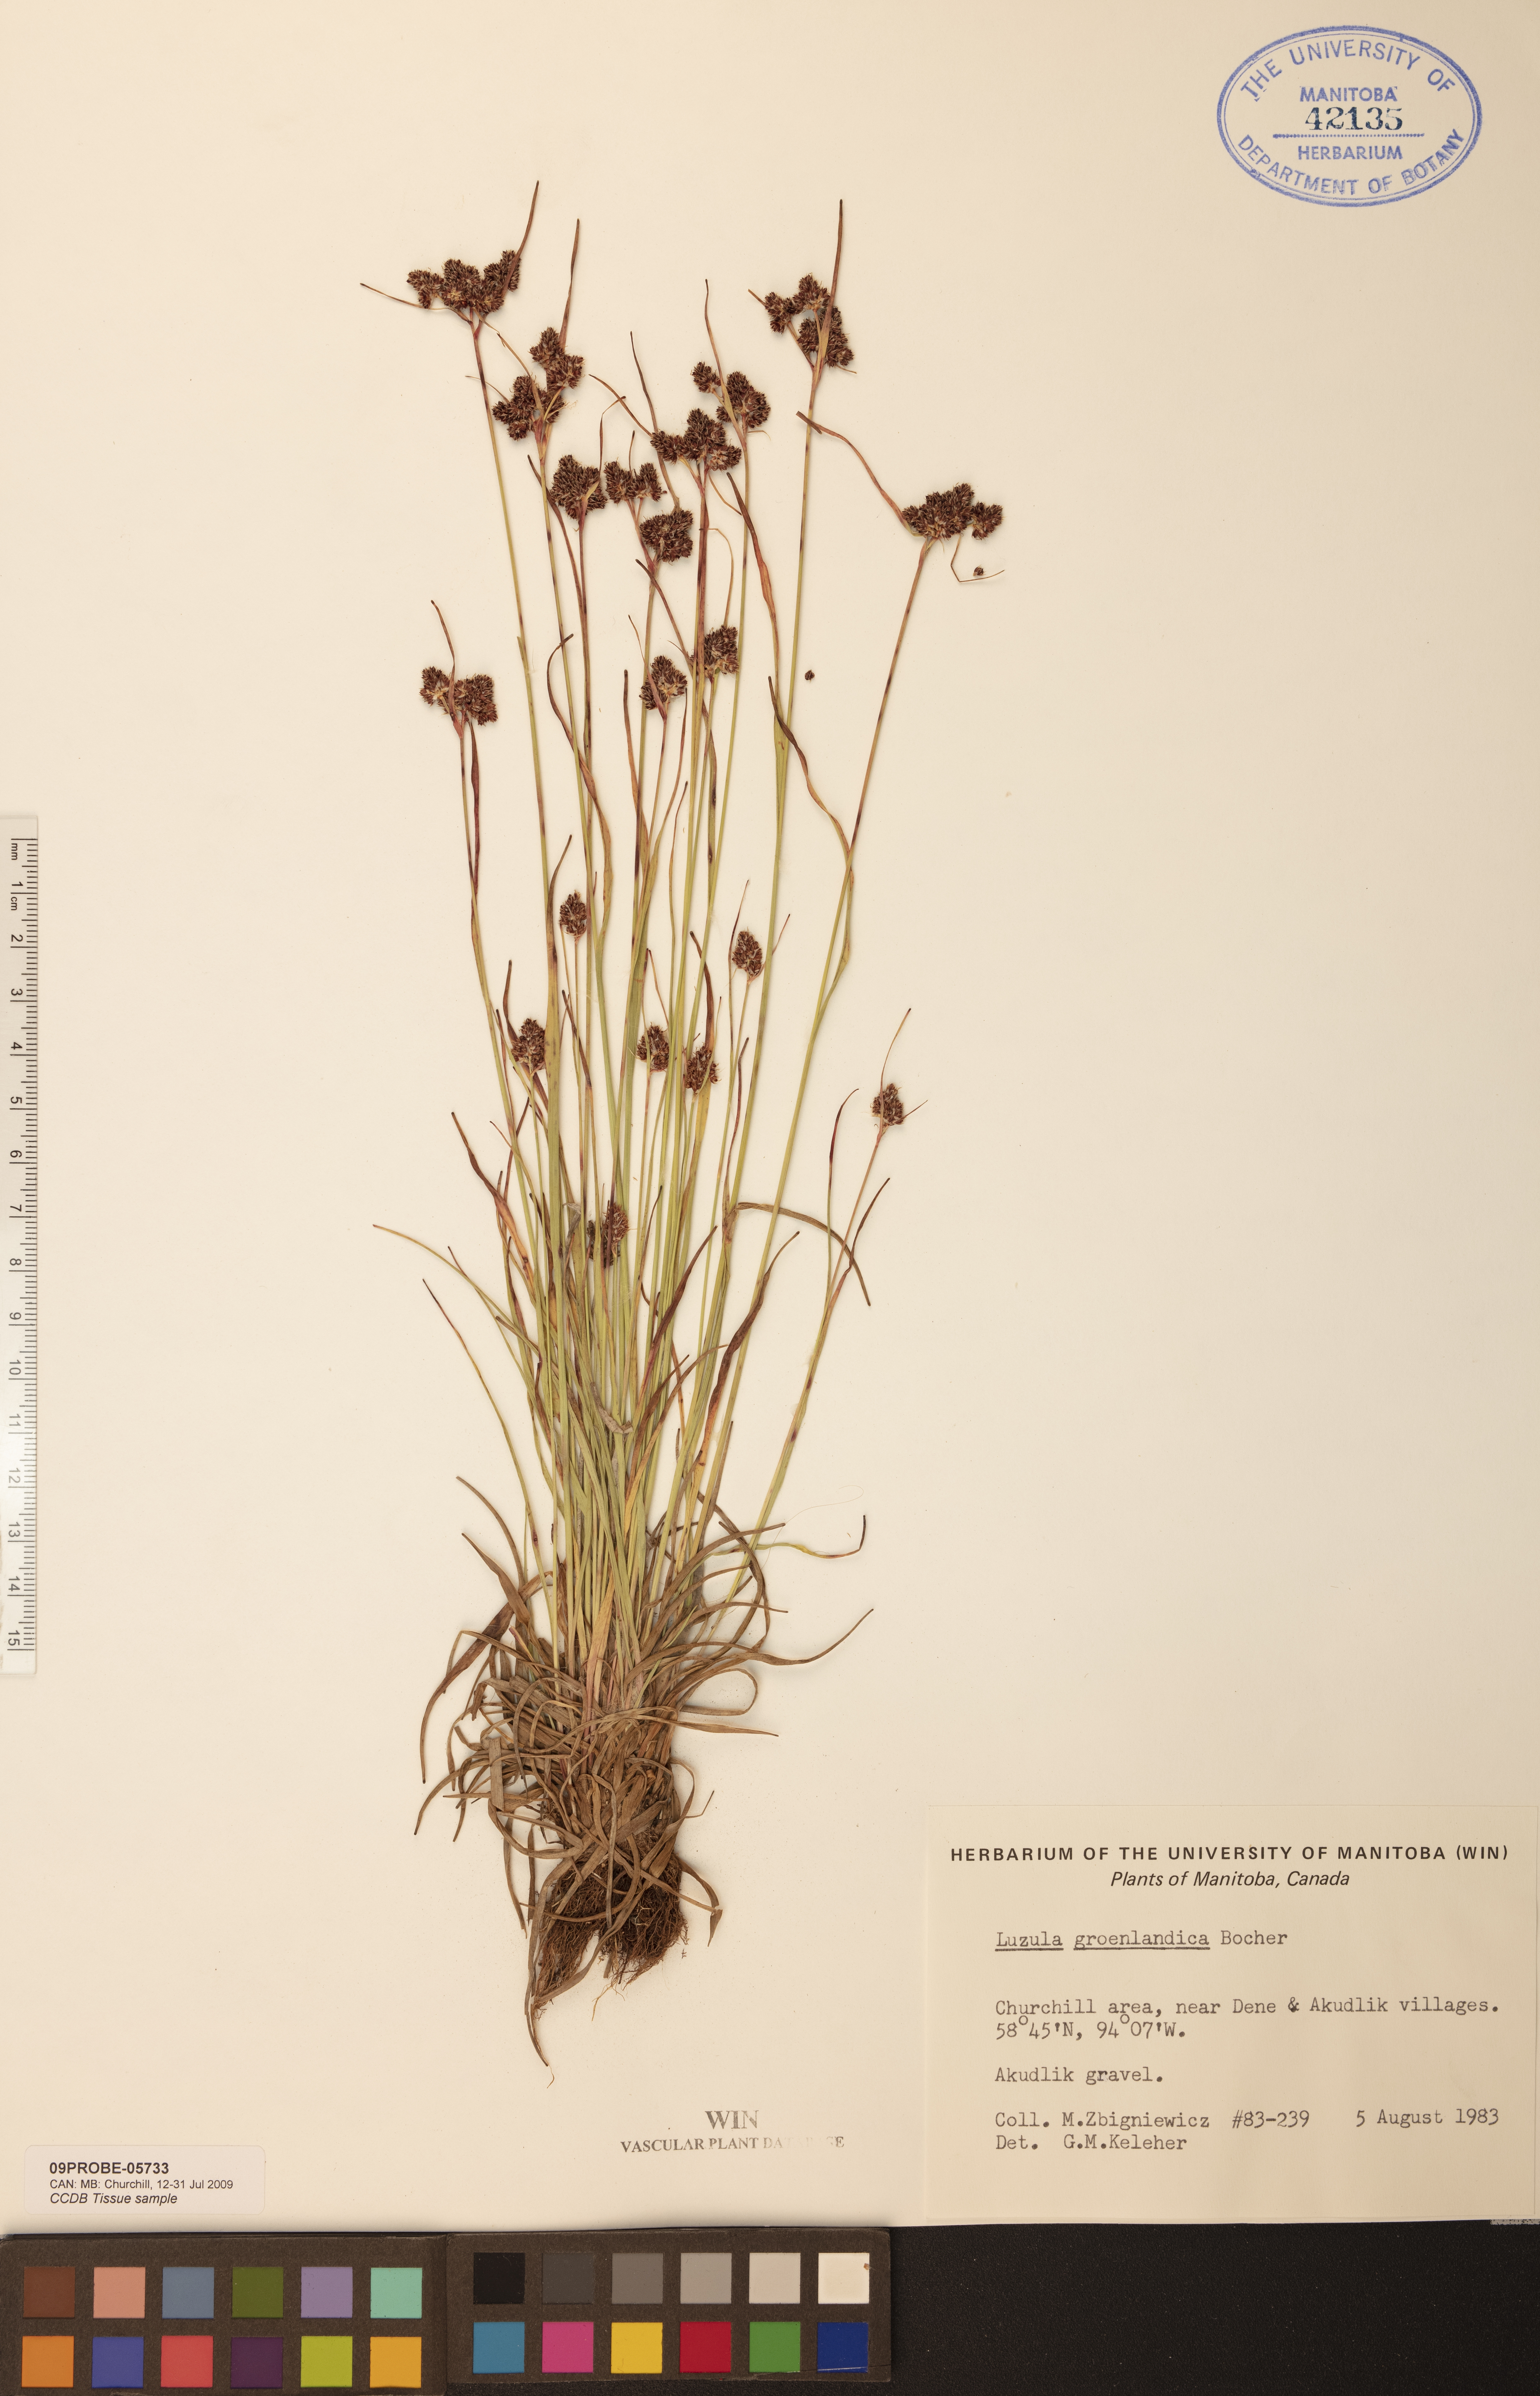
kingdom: Plantae
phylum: Tracheophyta
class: Liliopsida
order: Poales
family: Juncaceae
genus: Luzula
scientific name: Luzula groenlandica
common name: Greenland woodrush
